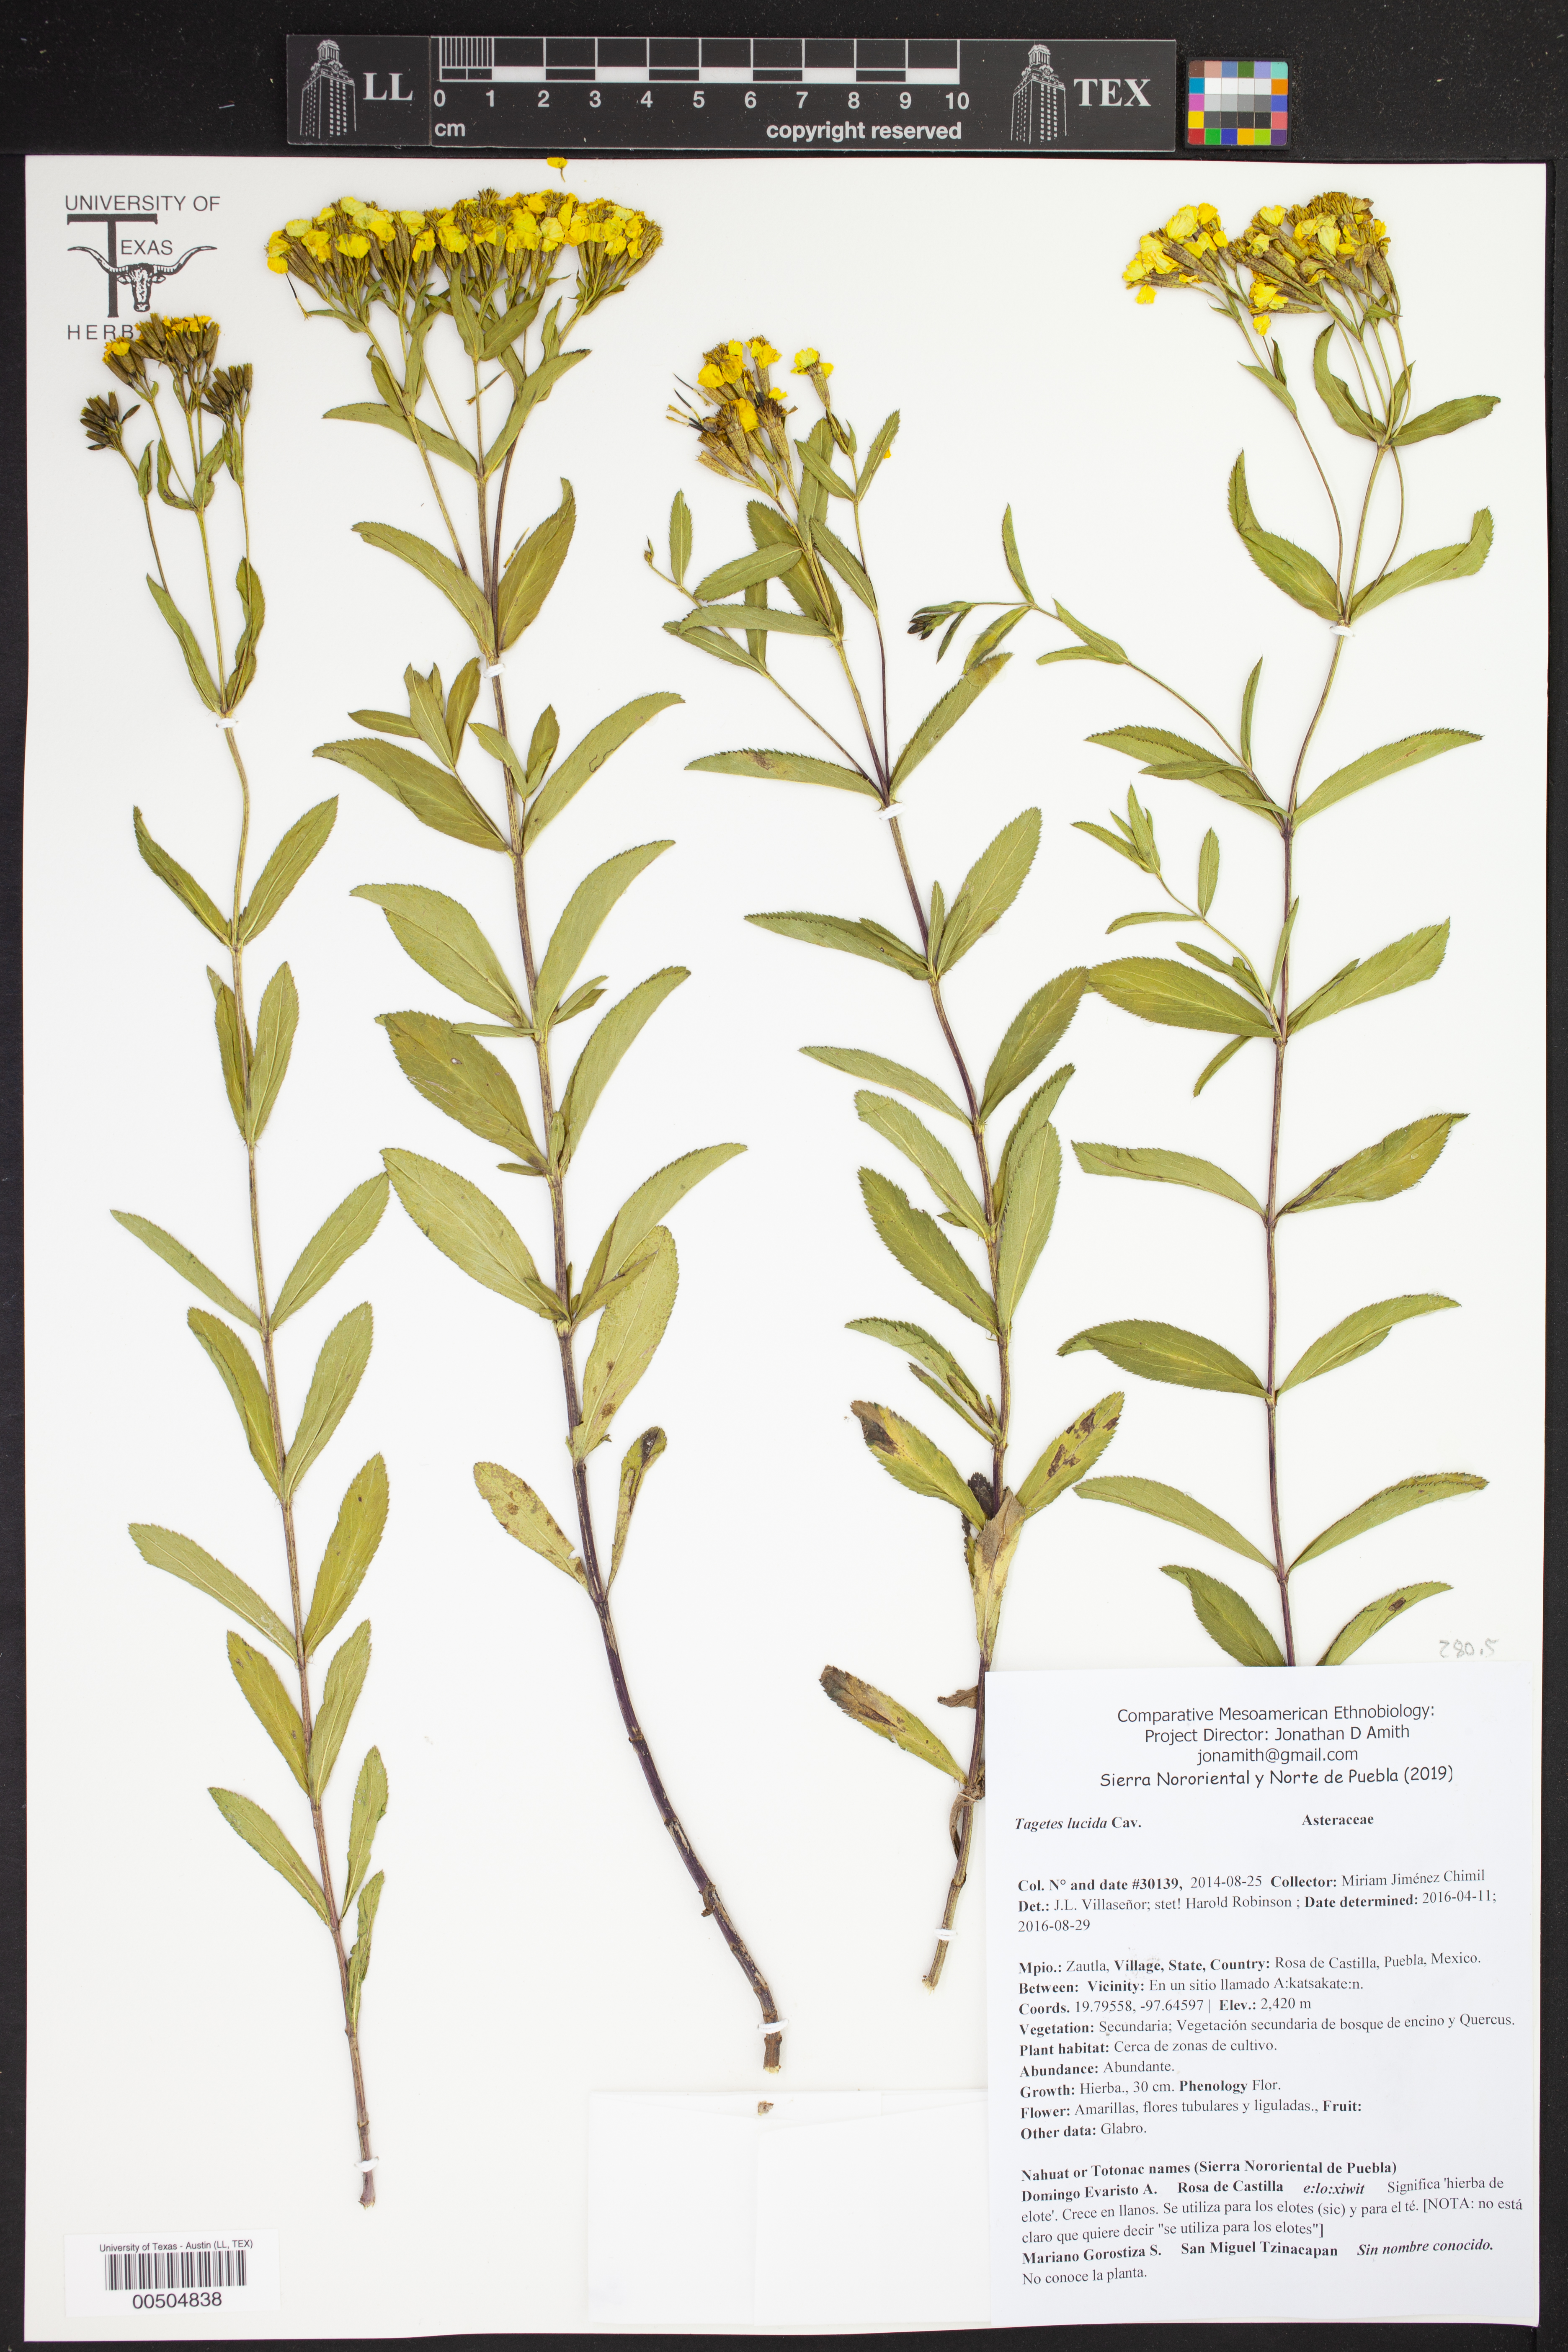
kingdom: Plantae
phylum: Tracheophyta
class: Magnoliopsida
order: Asterales
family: Asteraceae
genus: Tagetes
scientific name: Tagetes lucida
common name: Sweetscented marigold
